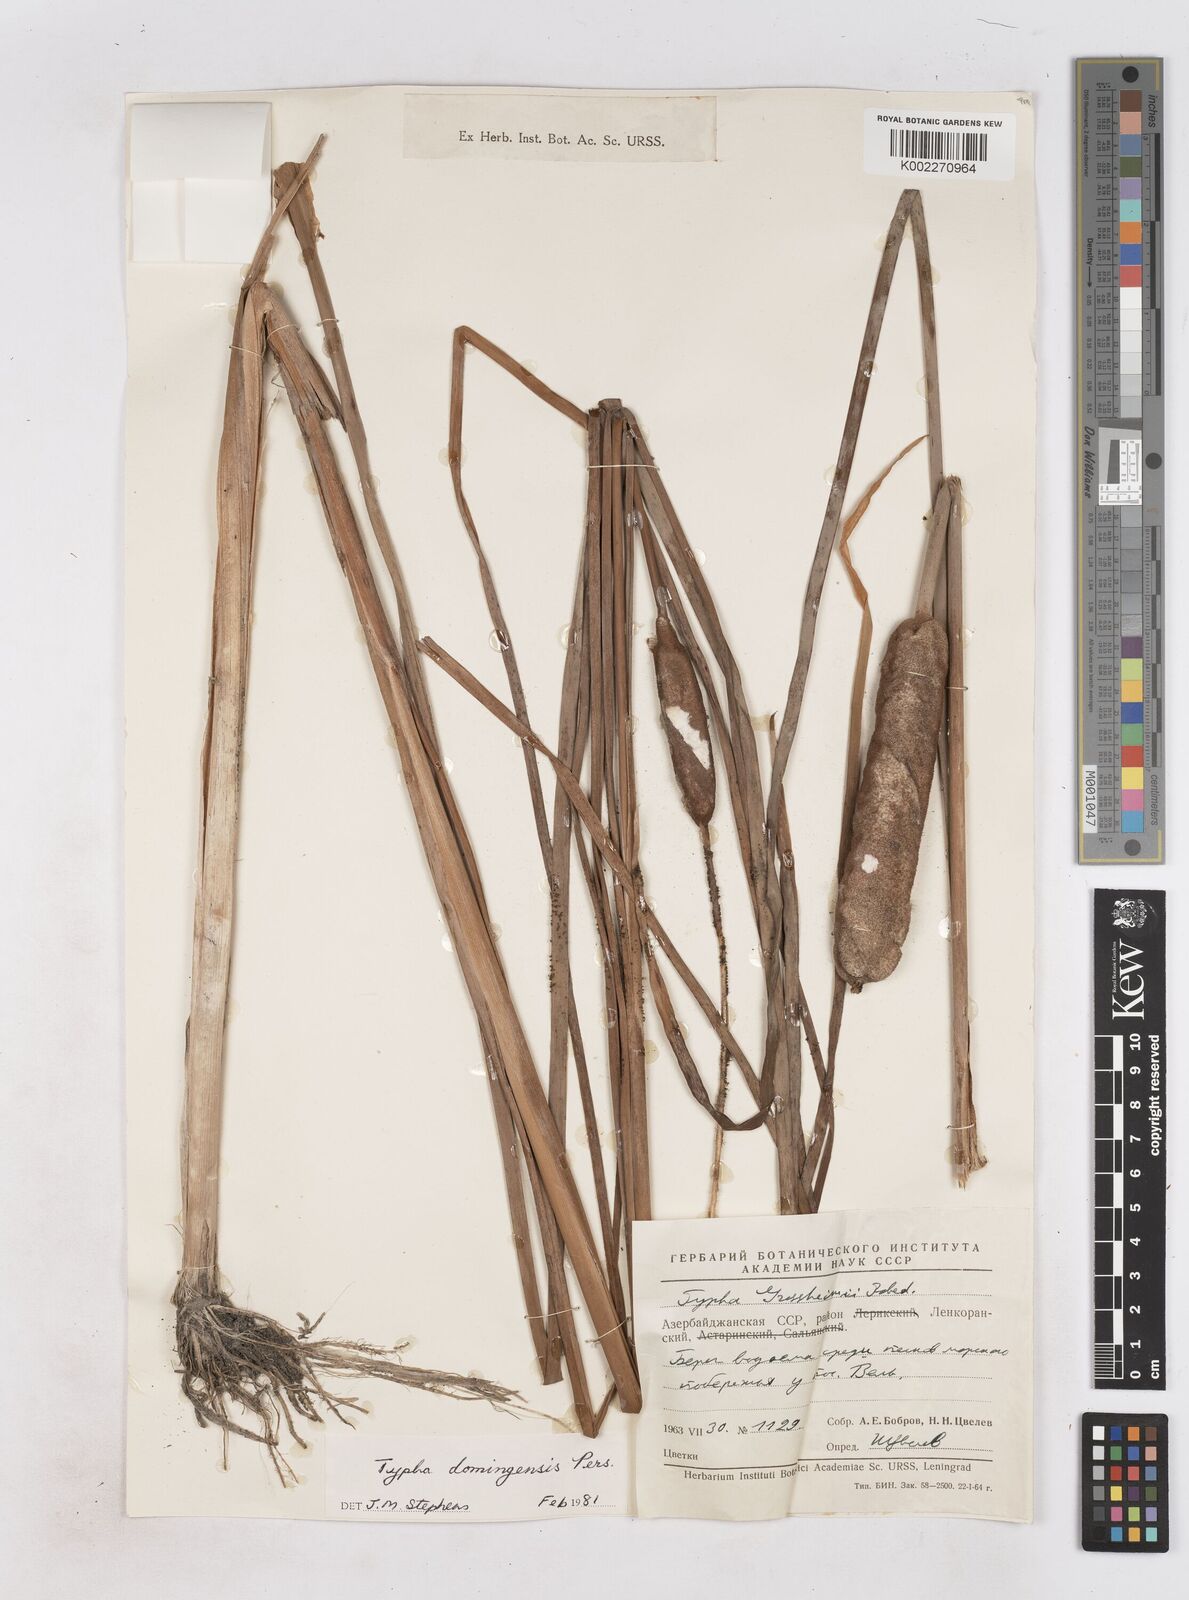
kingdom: Plantae
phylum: Tracheophyta
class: Liliopsida
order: Poales
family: Typhaceae
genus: Typha
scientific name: Typha domingensis
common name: Southern cattail
